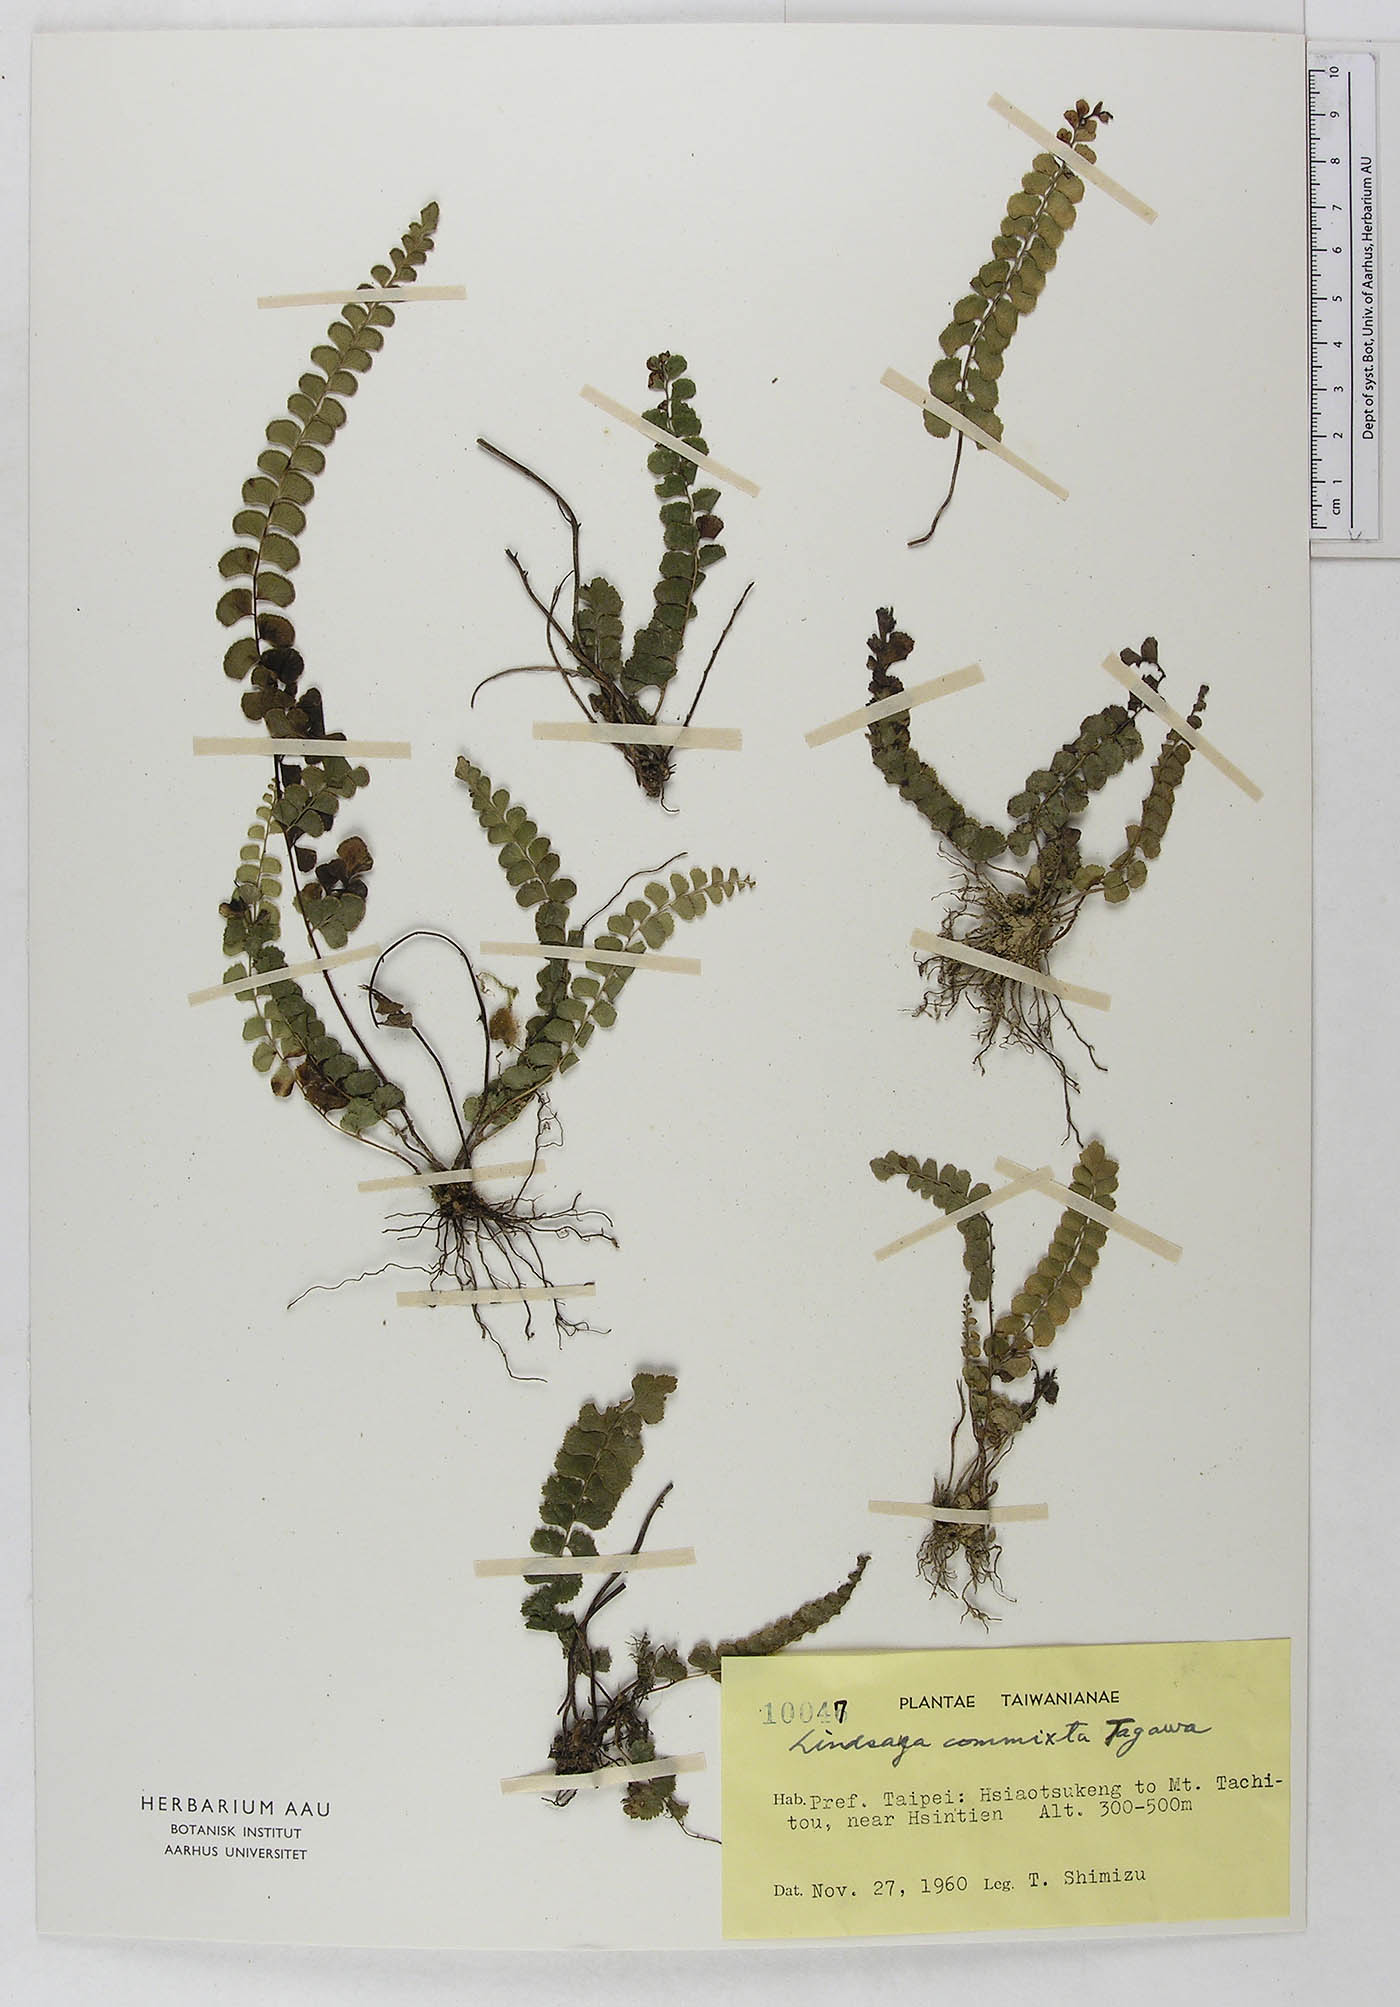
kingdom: Plantae
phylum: Tracheophyta
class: Polypodiopsida
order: Polypodiales
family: Lindsaeaceae
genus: Lindsaea
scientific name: Lindsaea bonii
